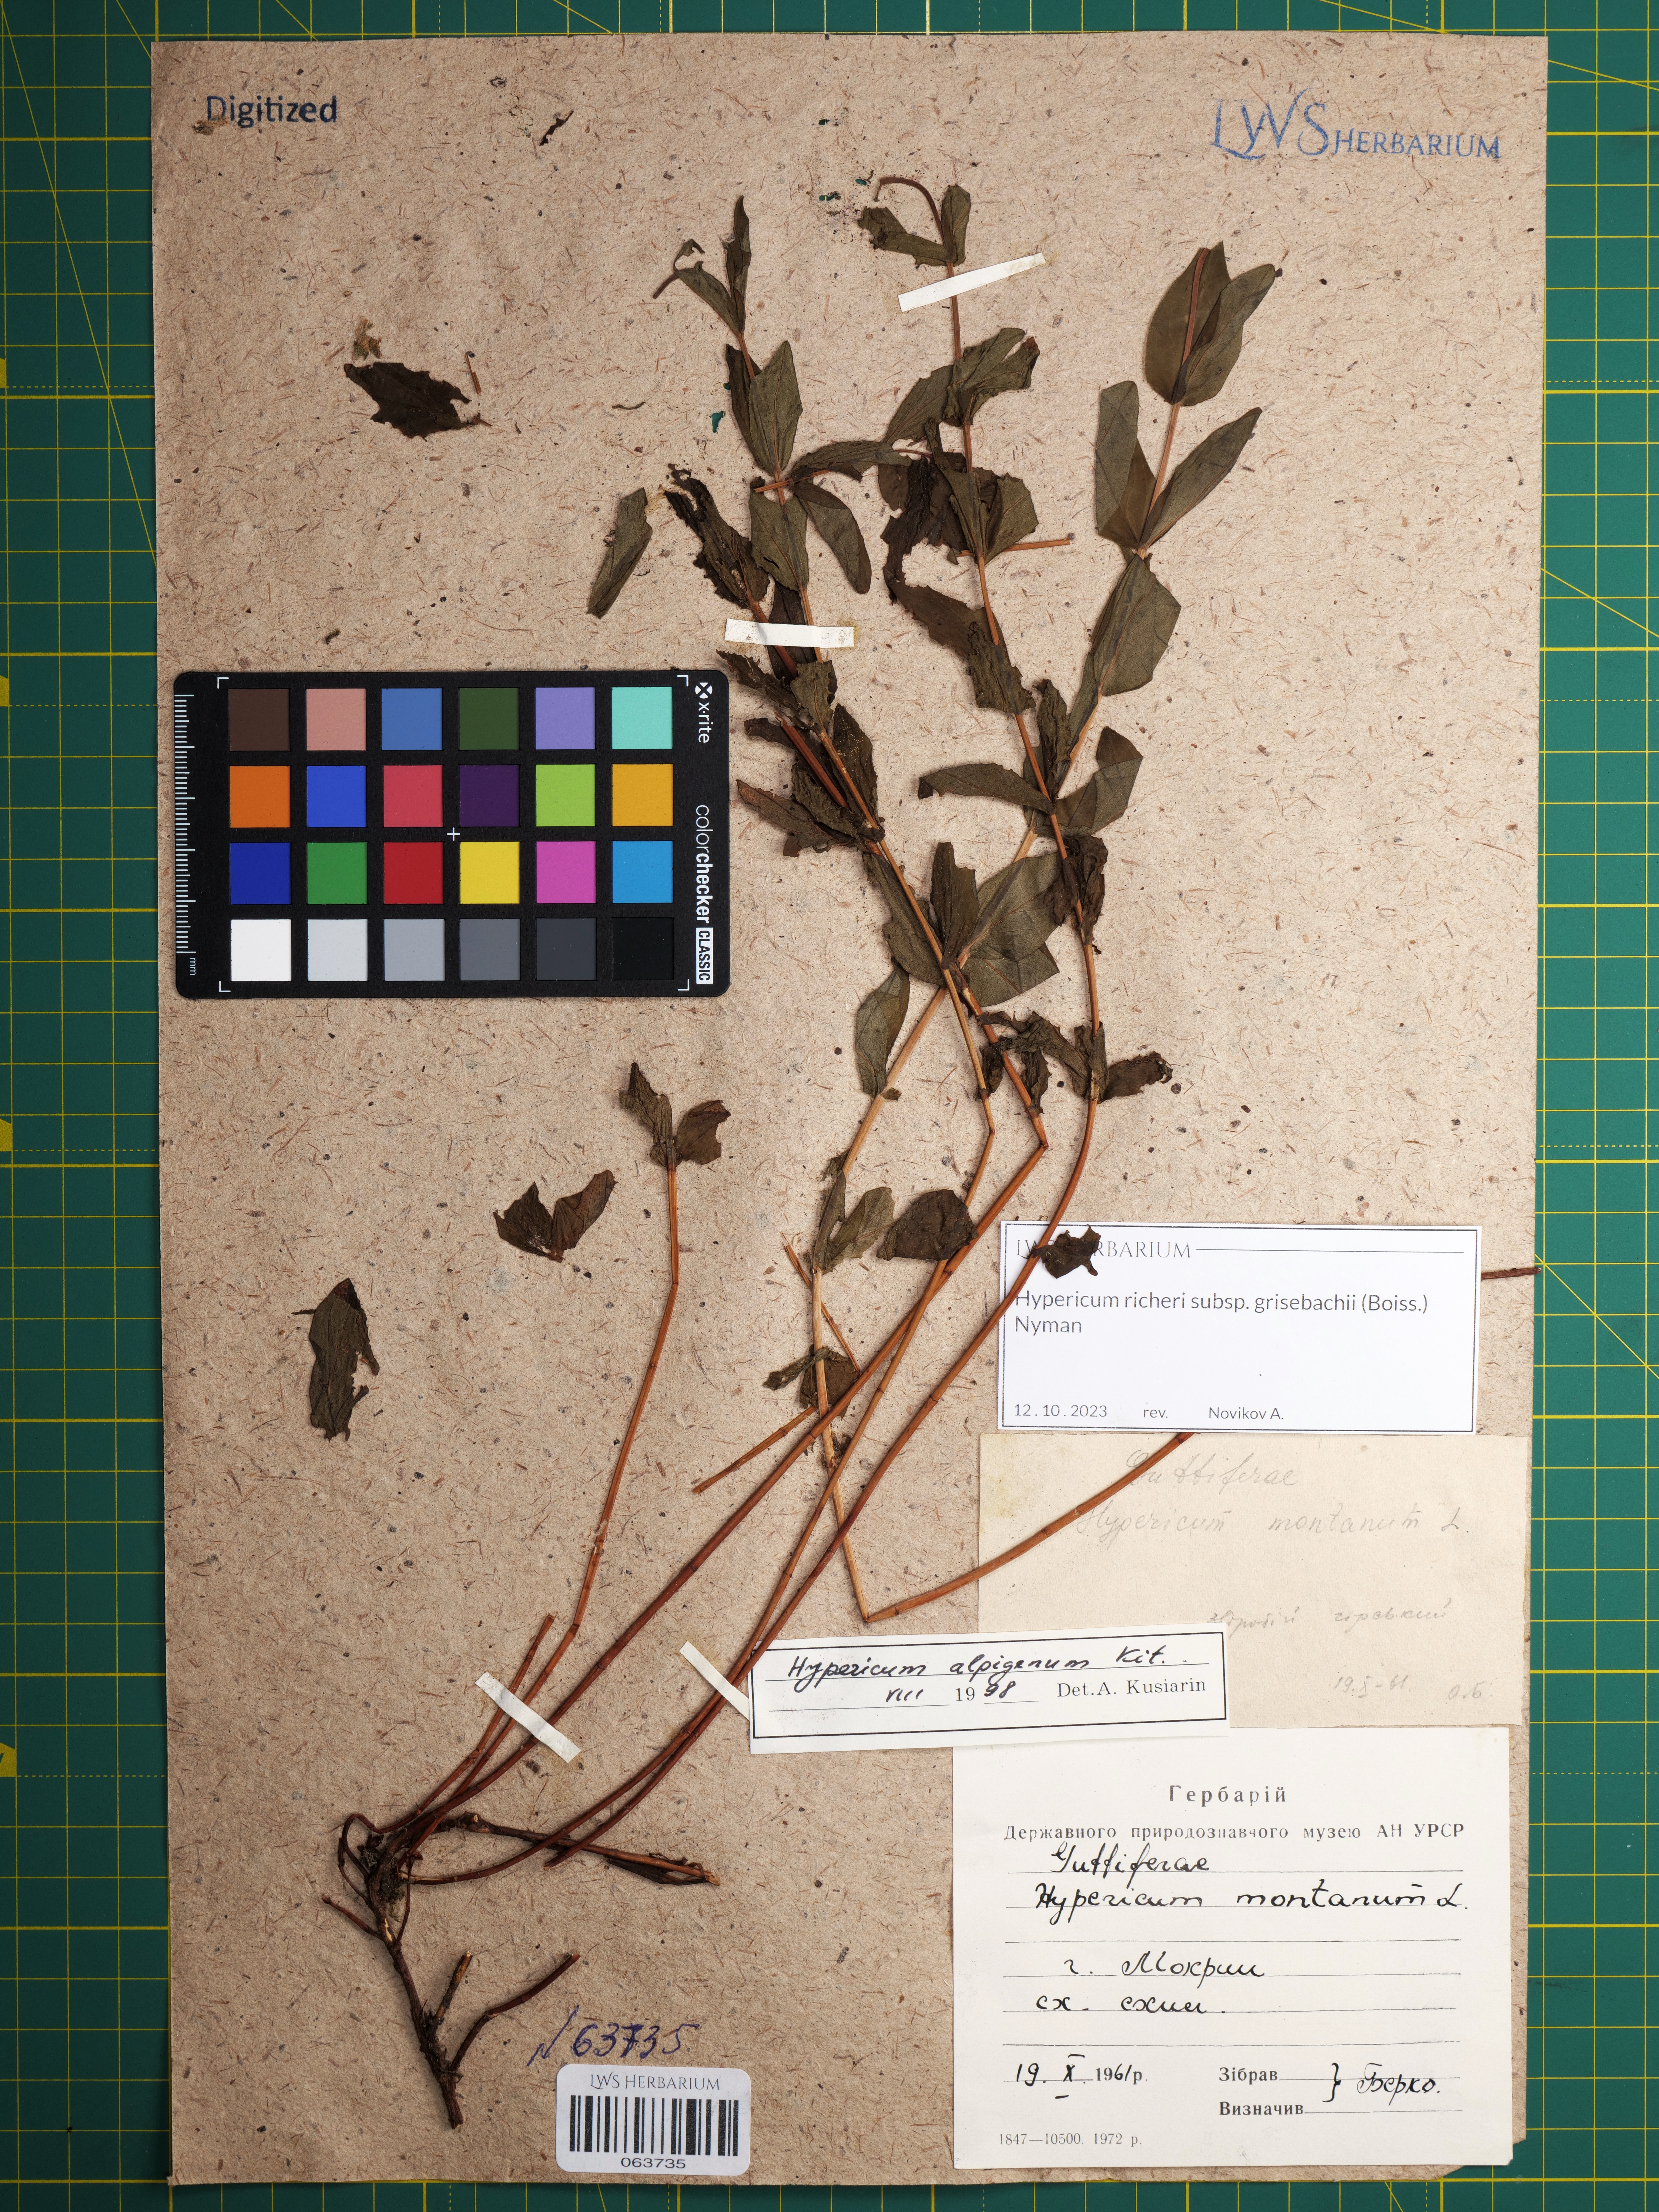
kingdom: Plantae
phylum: Tracheophyta
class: Magnoliopsida
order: Malpighiales
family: Hypericaceae
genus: Hypericum
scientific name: Hypericum richeri
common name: Alpine st john's-wort
